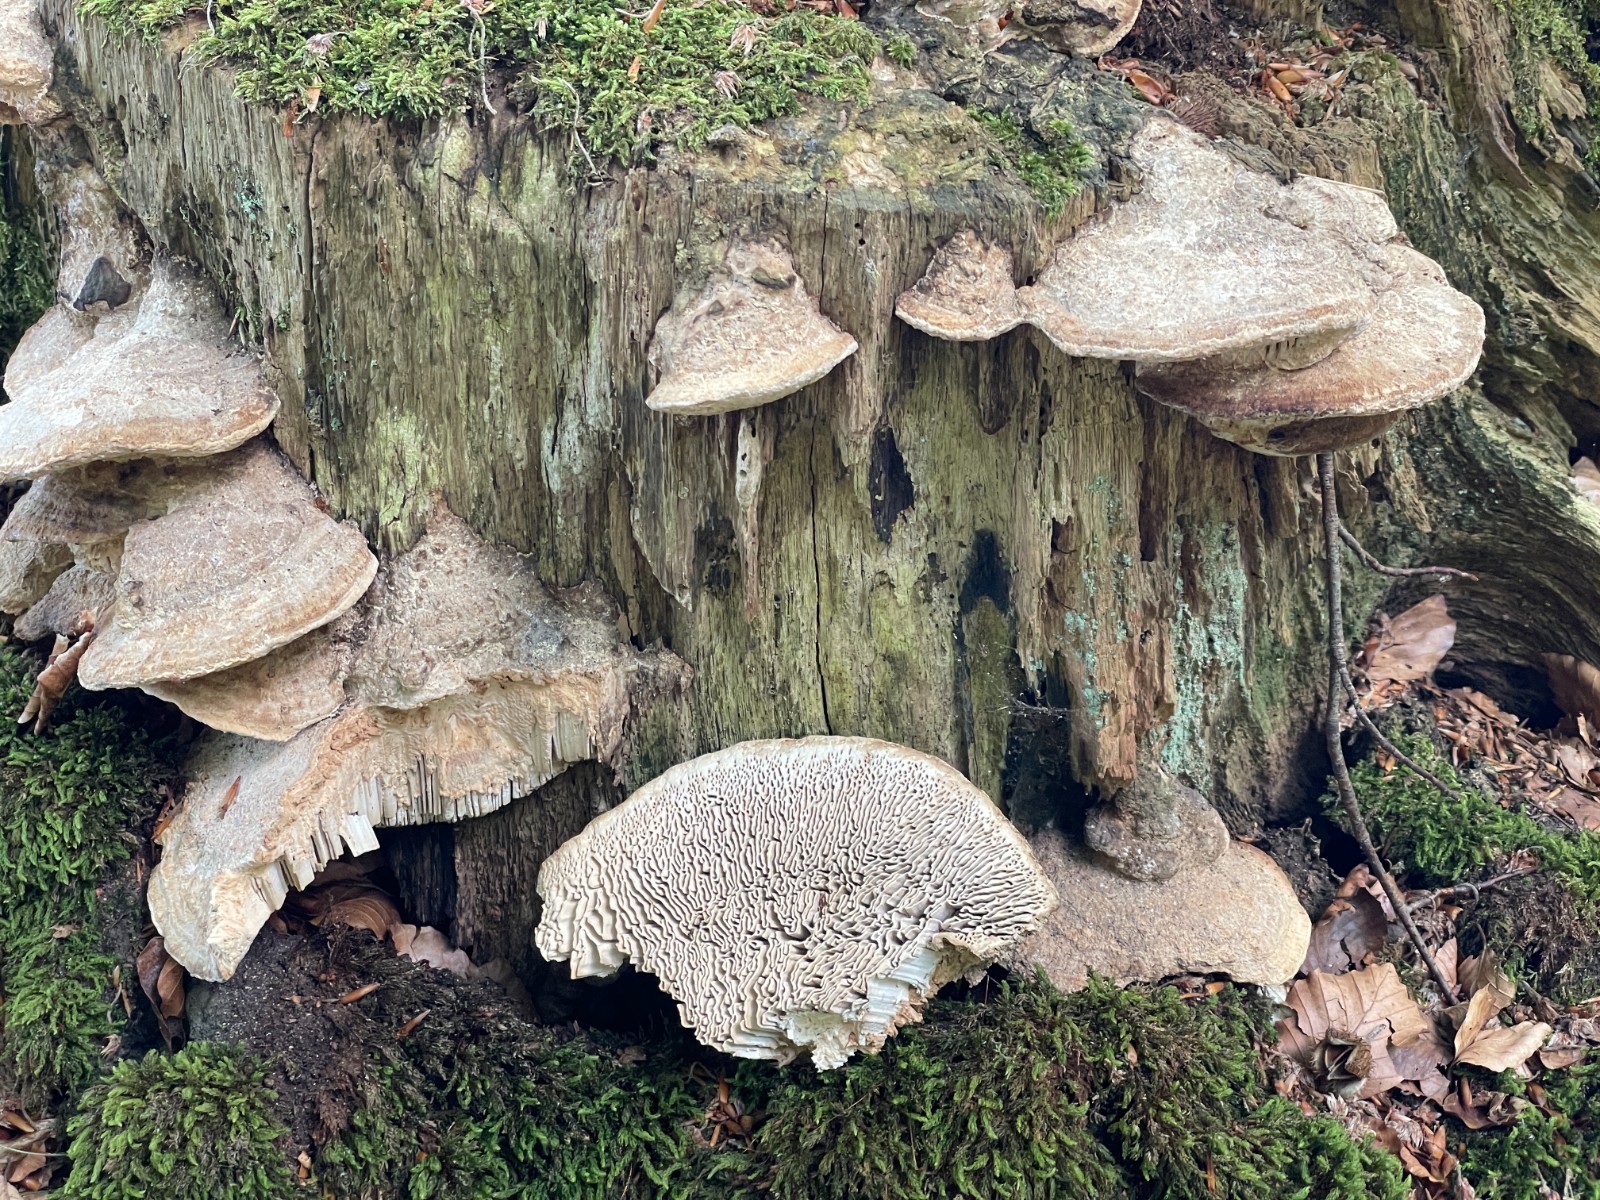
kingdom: Fungi
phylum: Basidiomycota
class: Agaricomycetes
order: Polyporales
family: Fomitopsidaceae
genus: Daedalea
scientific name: Daedalea quercina
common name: ege-labyrintsvamp
